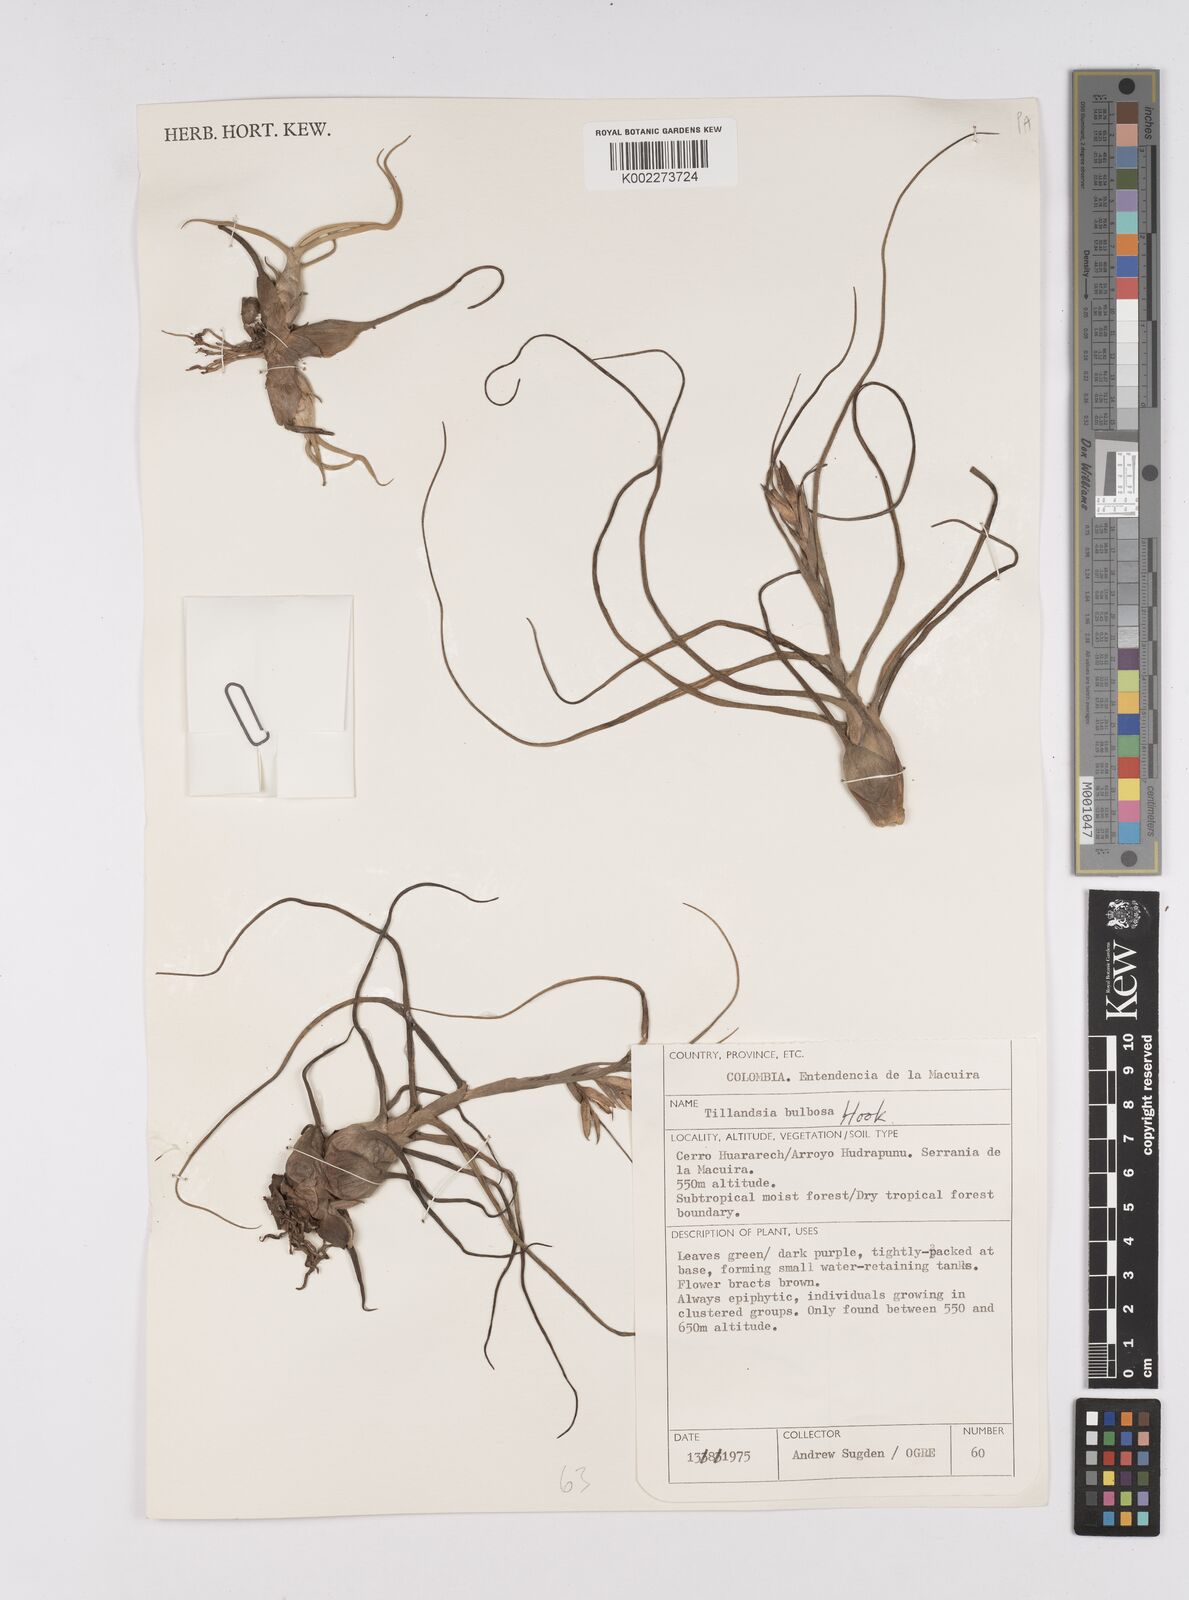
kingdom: Plantae
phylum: Tracheophyta
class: Liliopsida
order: Poales
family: Bromeliaceae
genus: Tillandsia
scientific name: Tillandsia bulbosa
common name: Bulbous airplant
